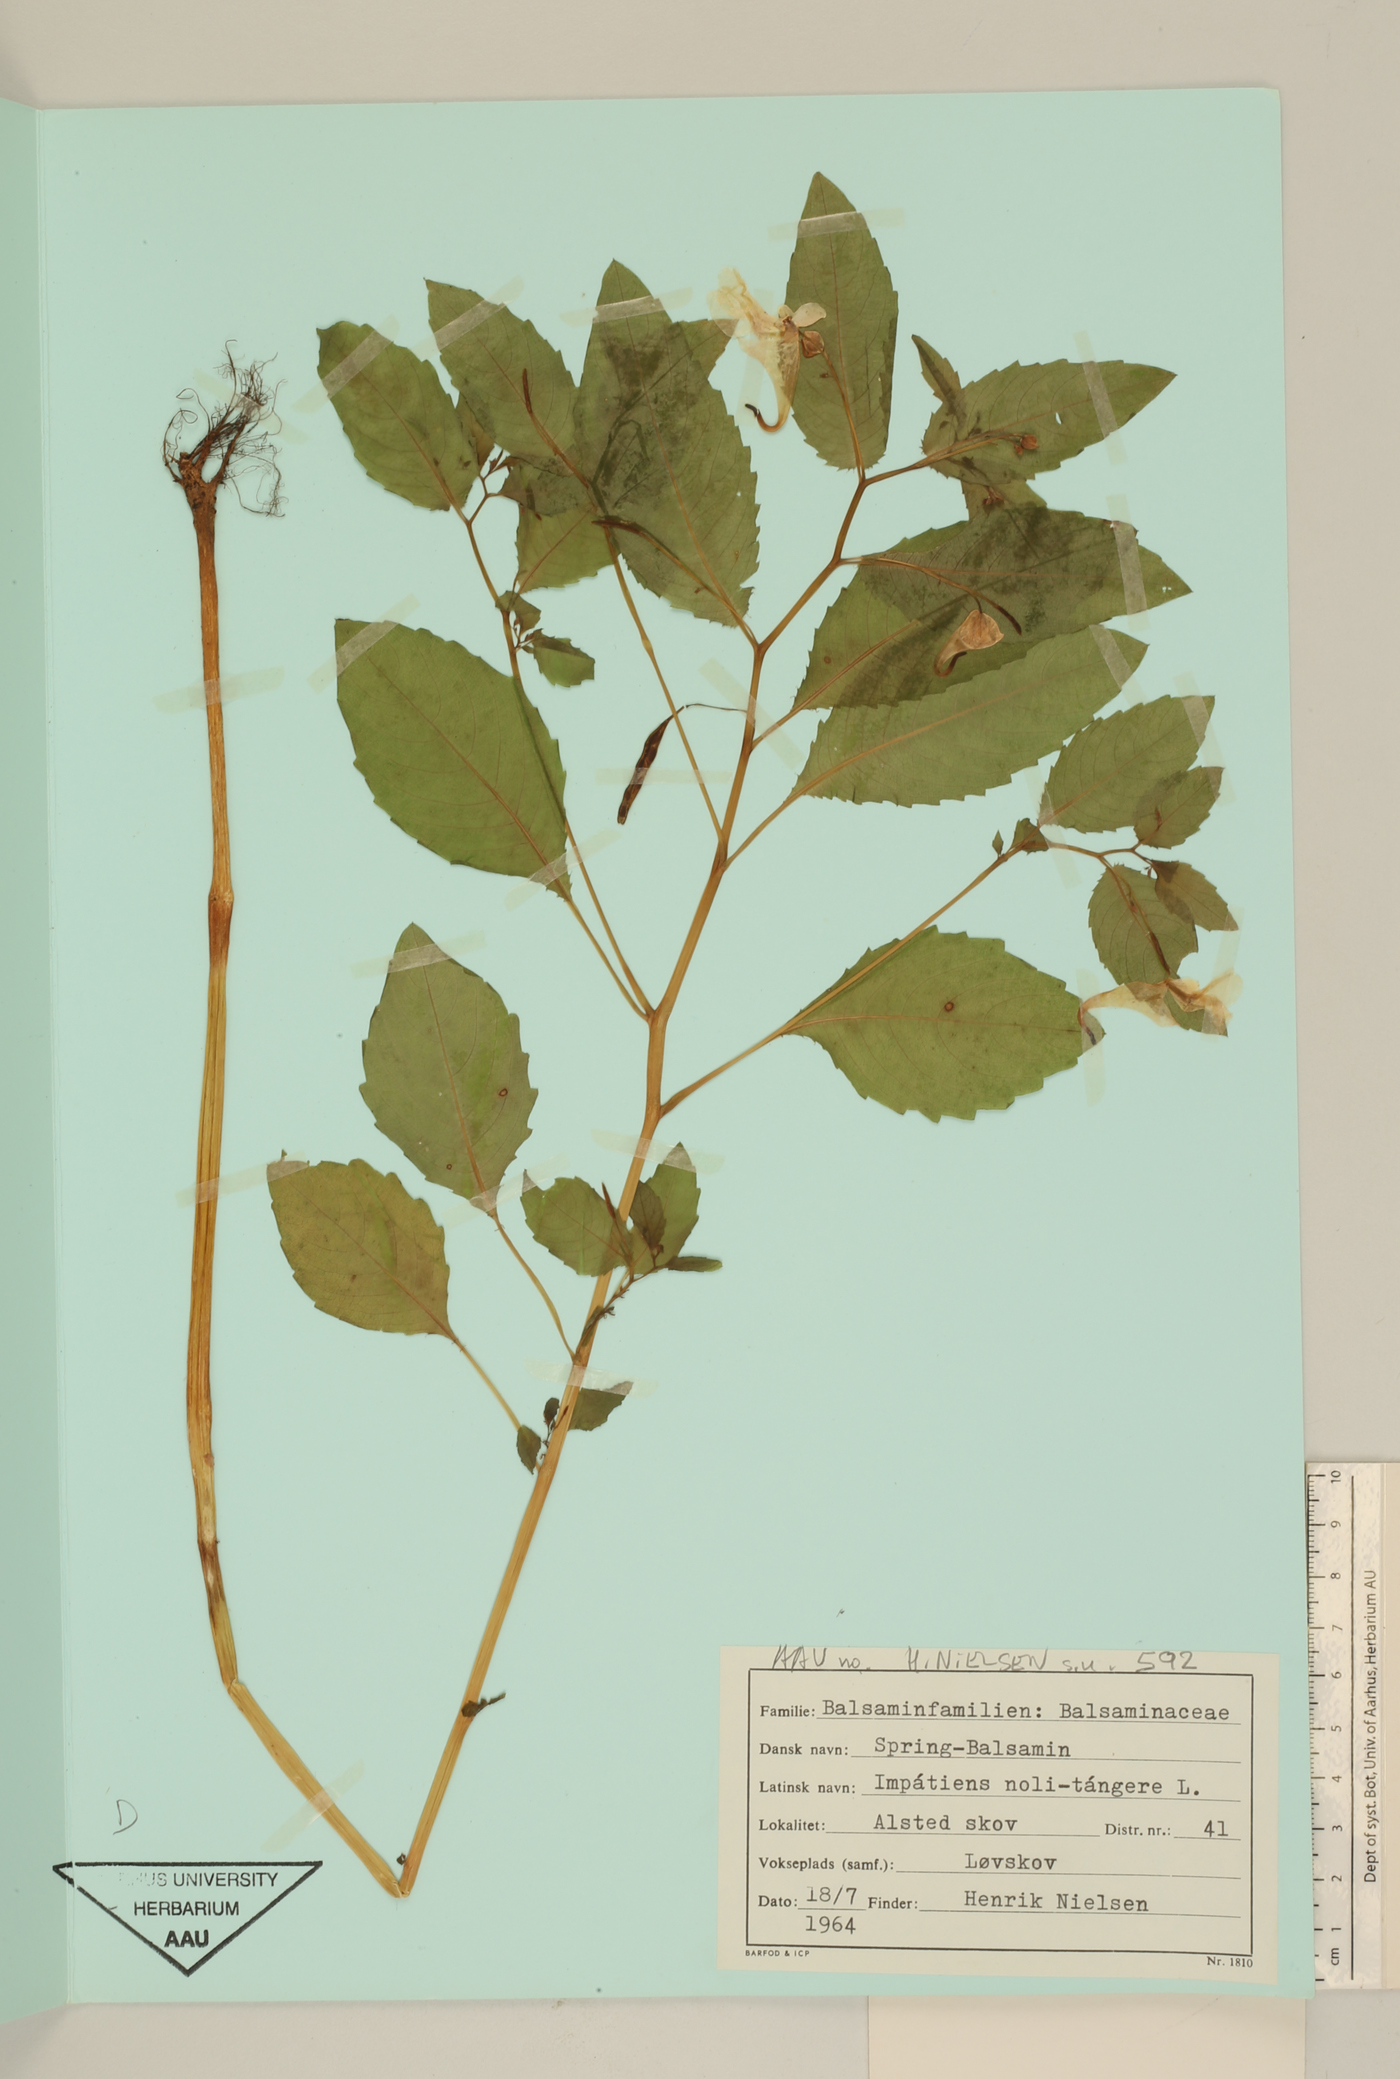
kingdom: Plantae
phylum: Tracheophyta
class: Magnoliopsida
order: Ericales
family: Balsaminaceae
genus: Impatiens
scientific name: Impatiens noli-tangere
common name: Touch-me-not balsam
